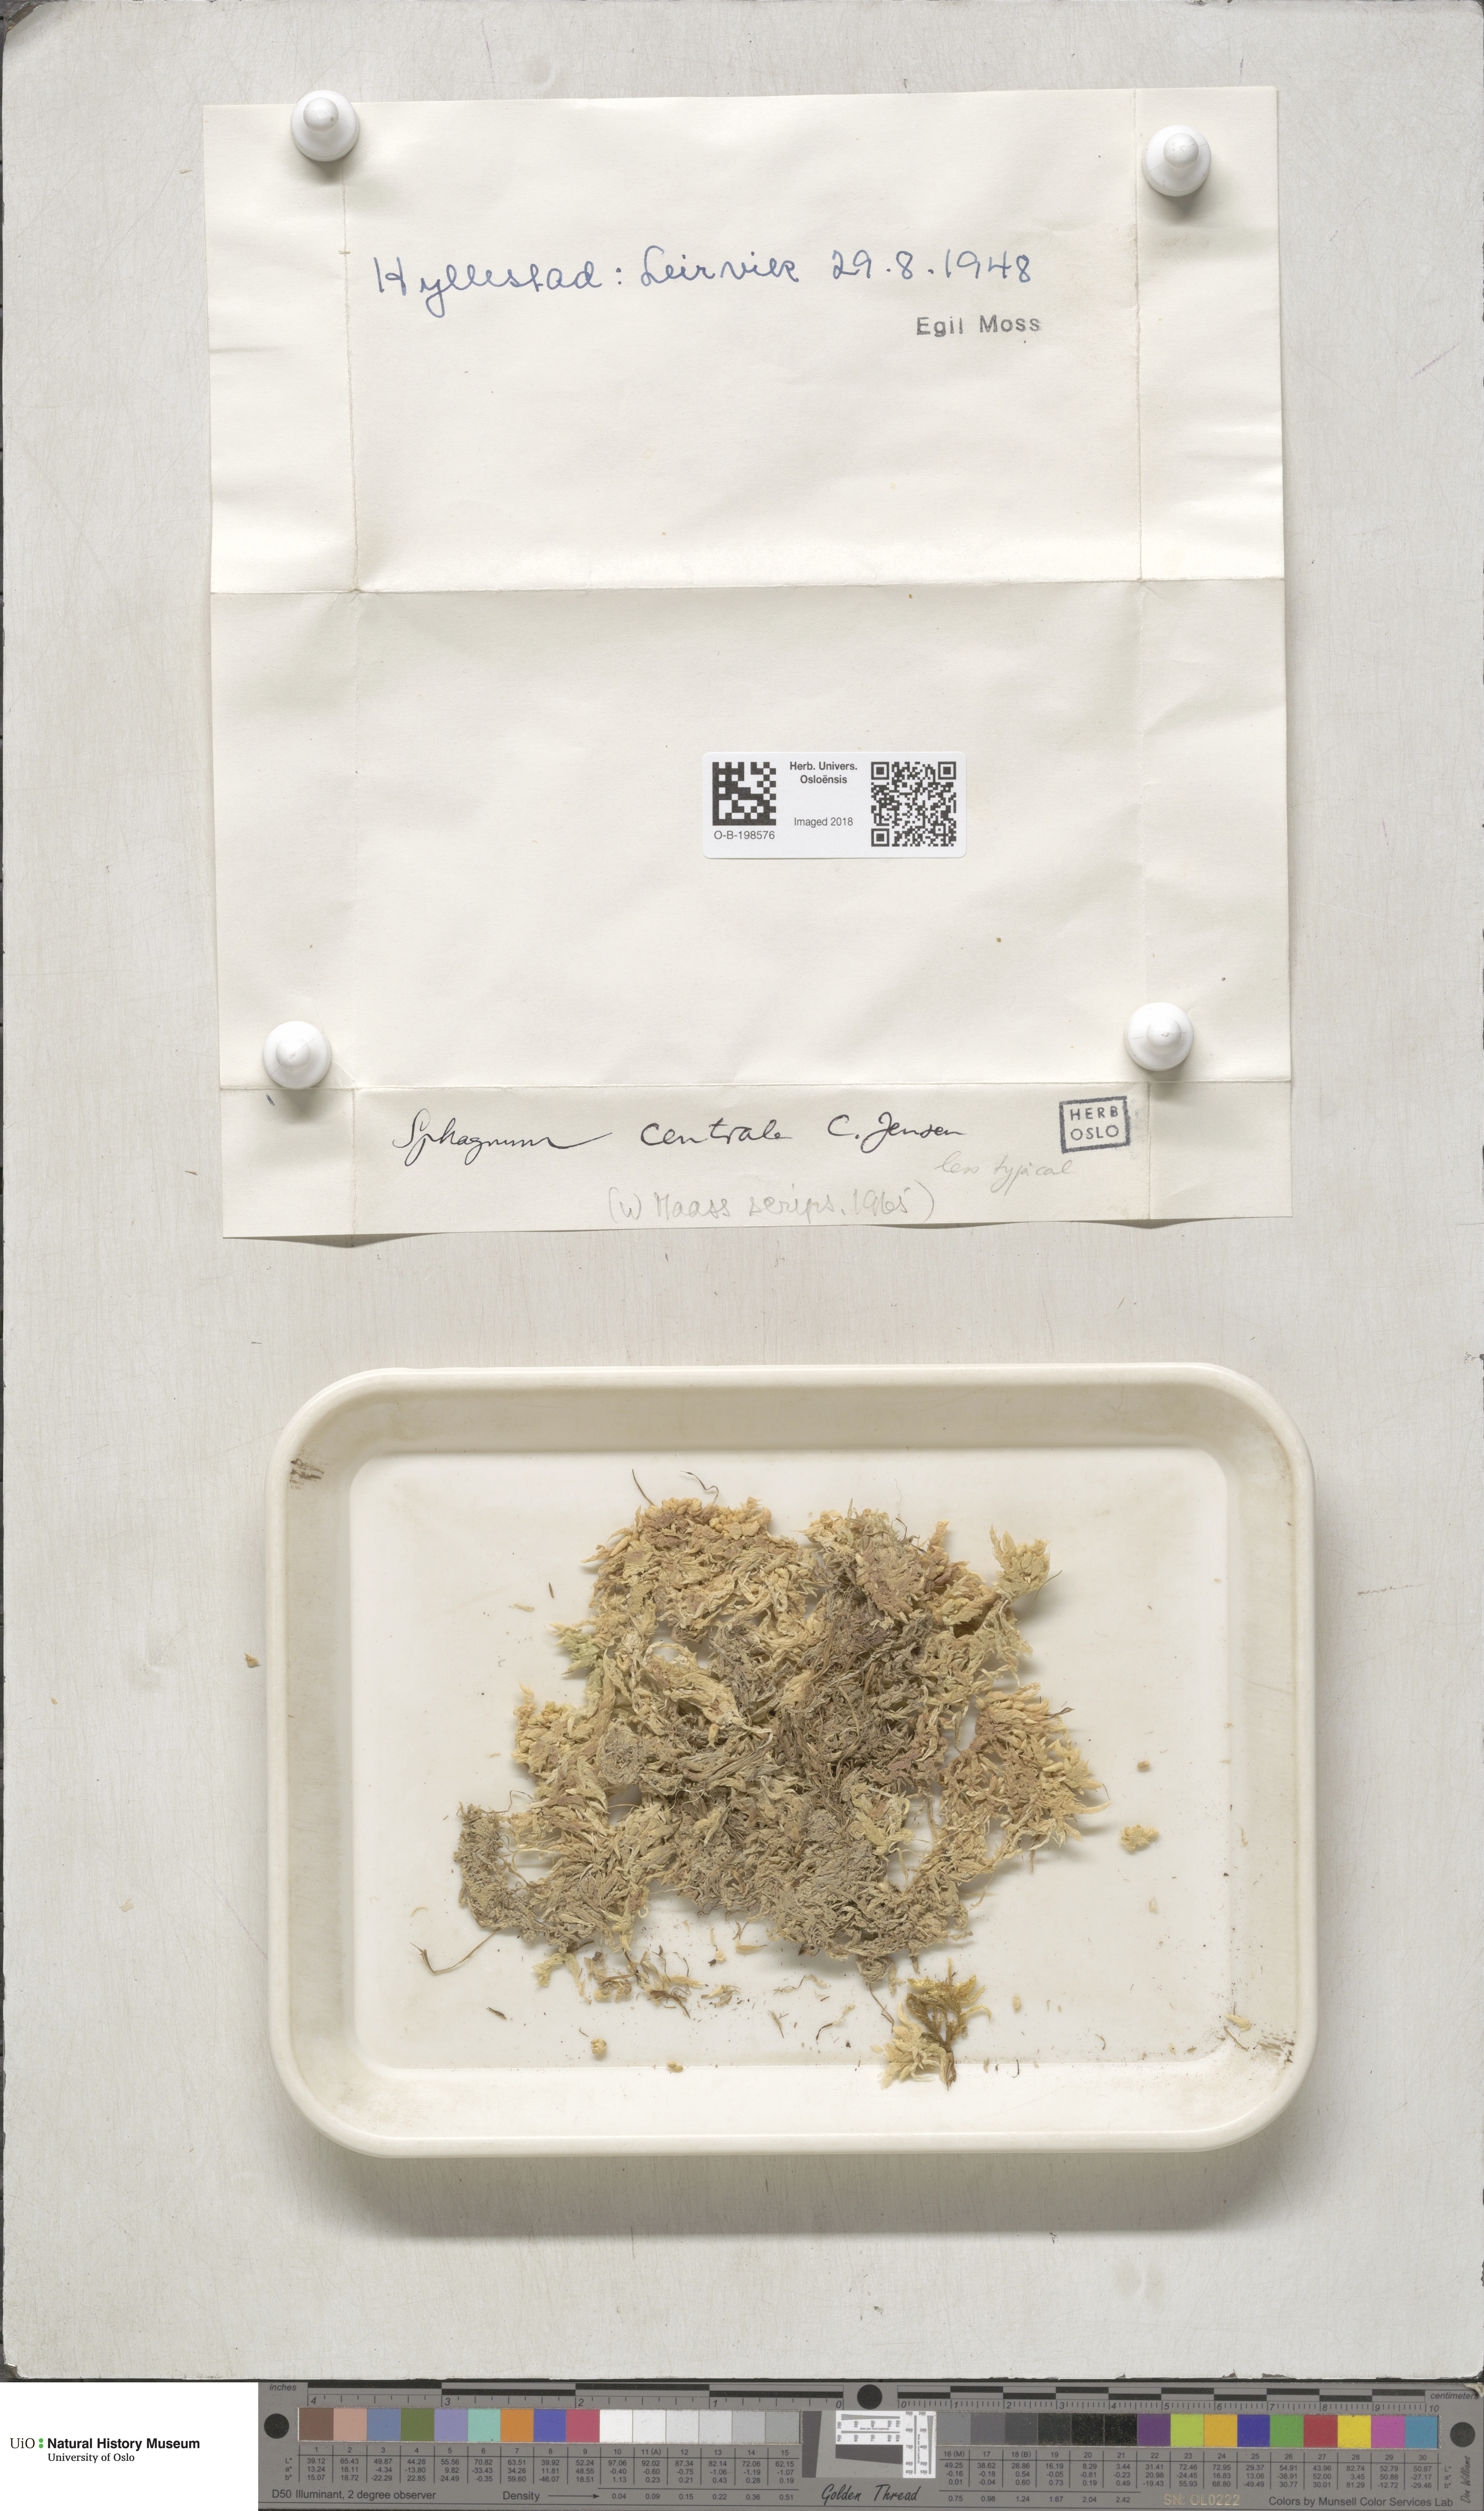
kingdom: Plantae
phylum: Bryophyta
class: Sphagnopsida
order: Sphagnales
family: Sphagnaceae
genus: Sphagnum
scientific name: Sphagnum centrale
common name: Central peat moss
